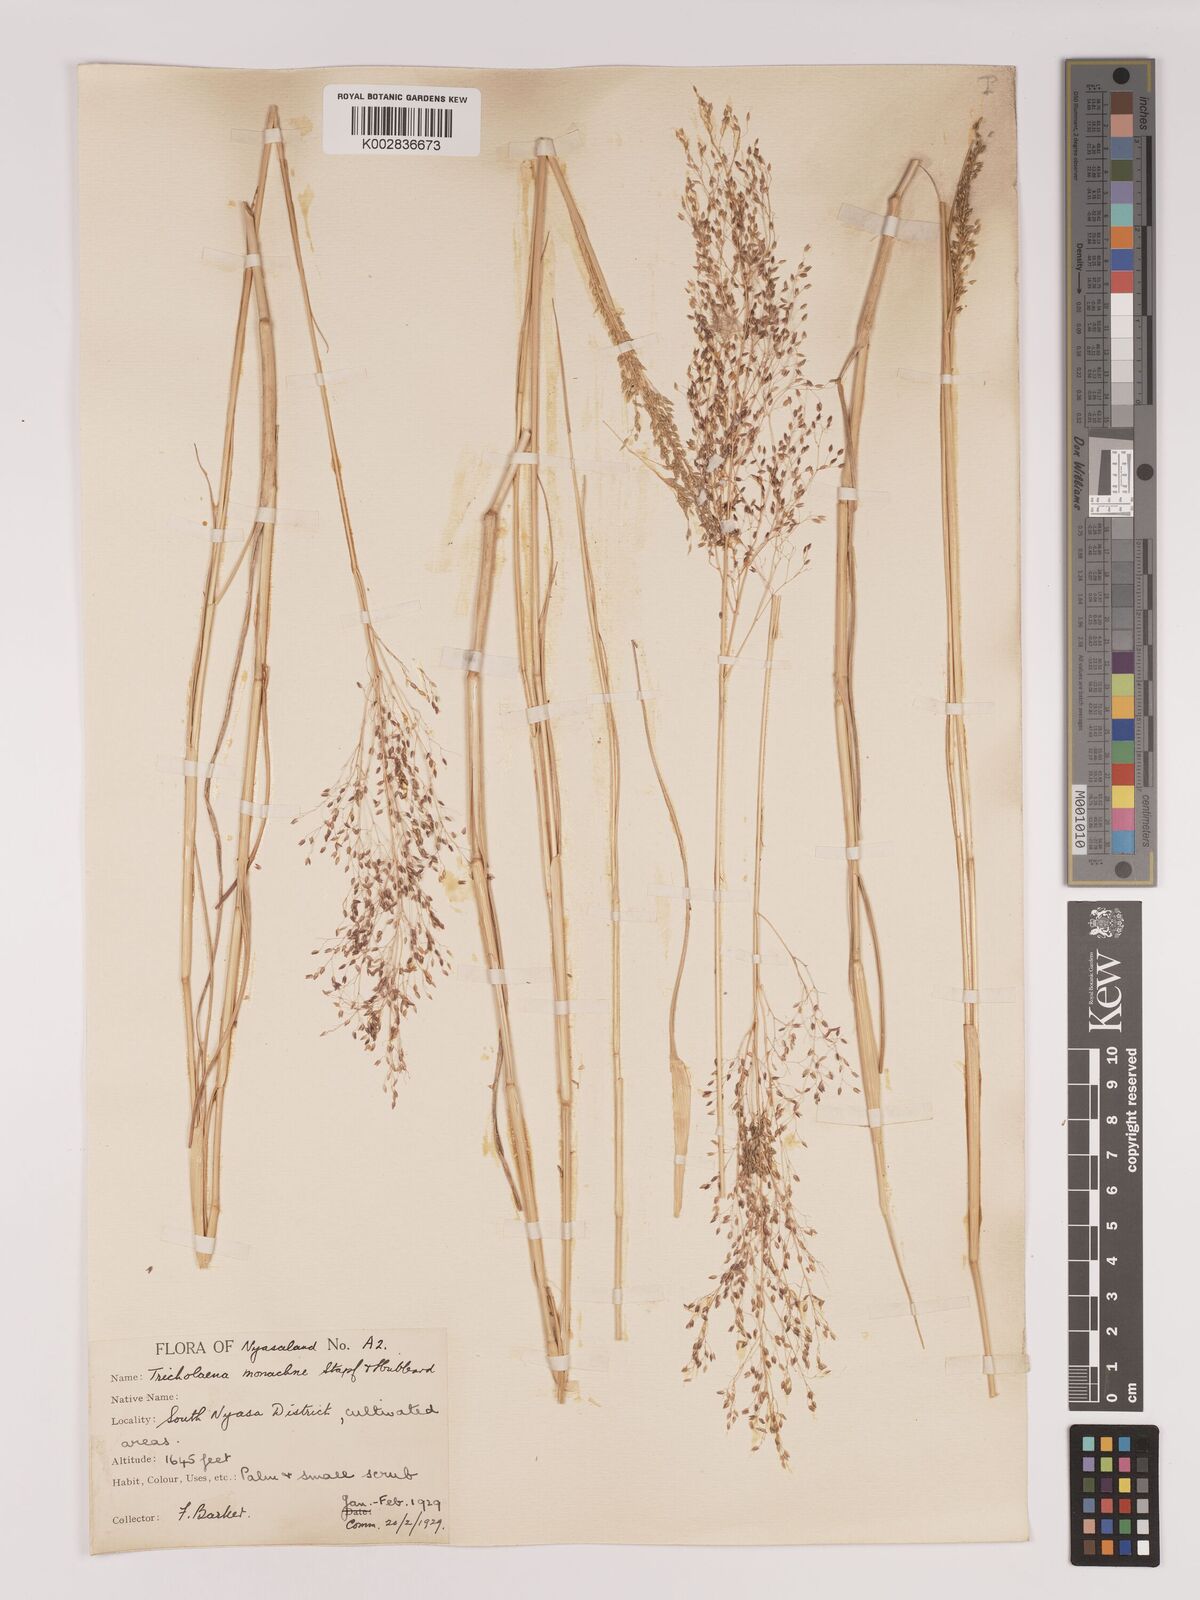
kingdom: Plantae
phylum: Tracheophyta
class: Liliopsida
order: Poales
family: Poaceae
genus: Tricholaena
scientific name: Tricholaena monachne
